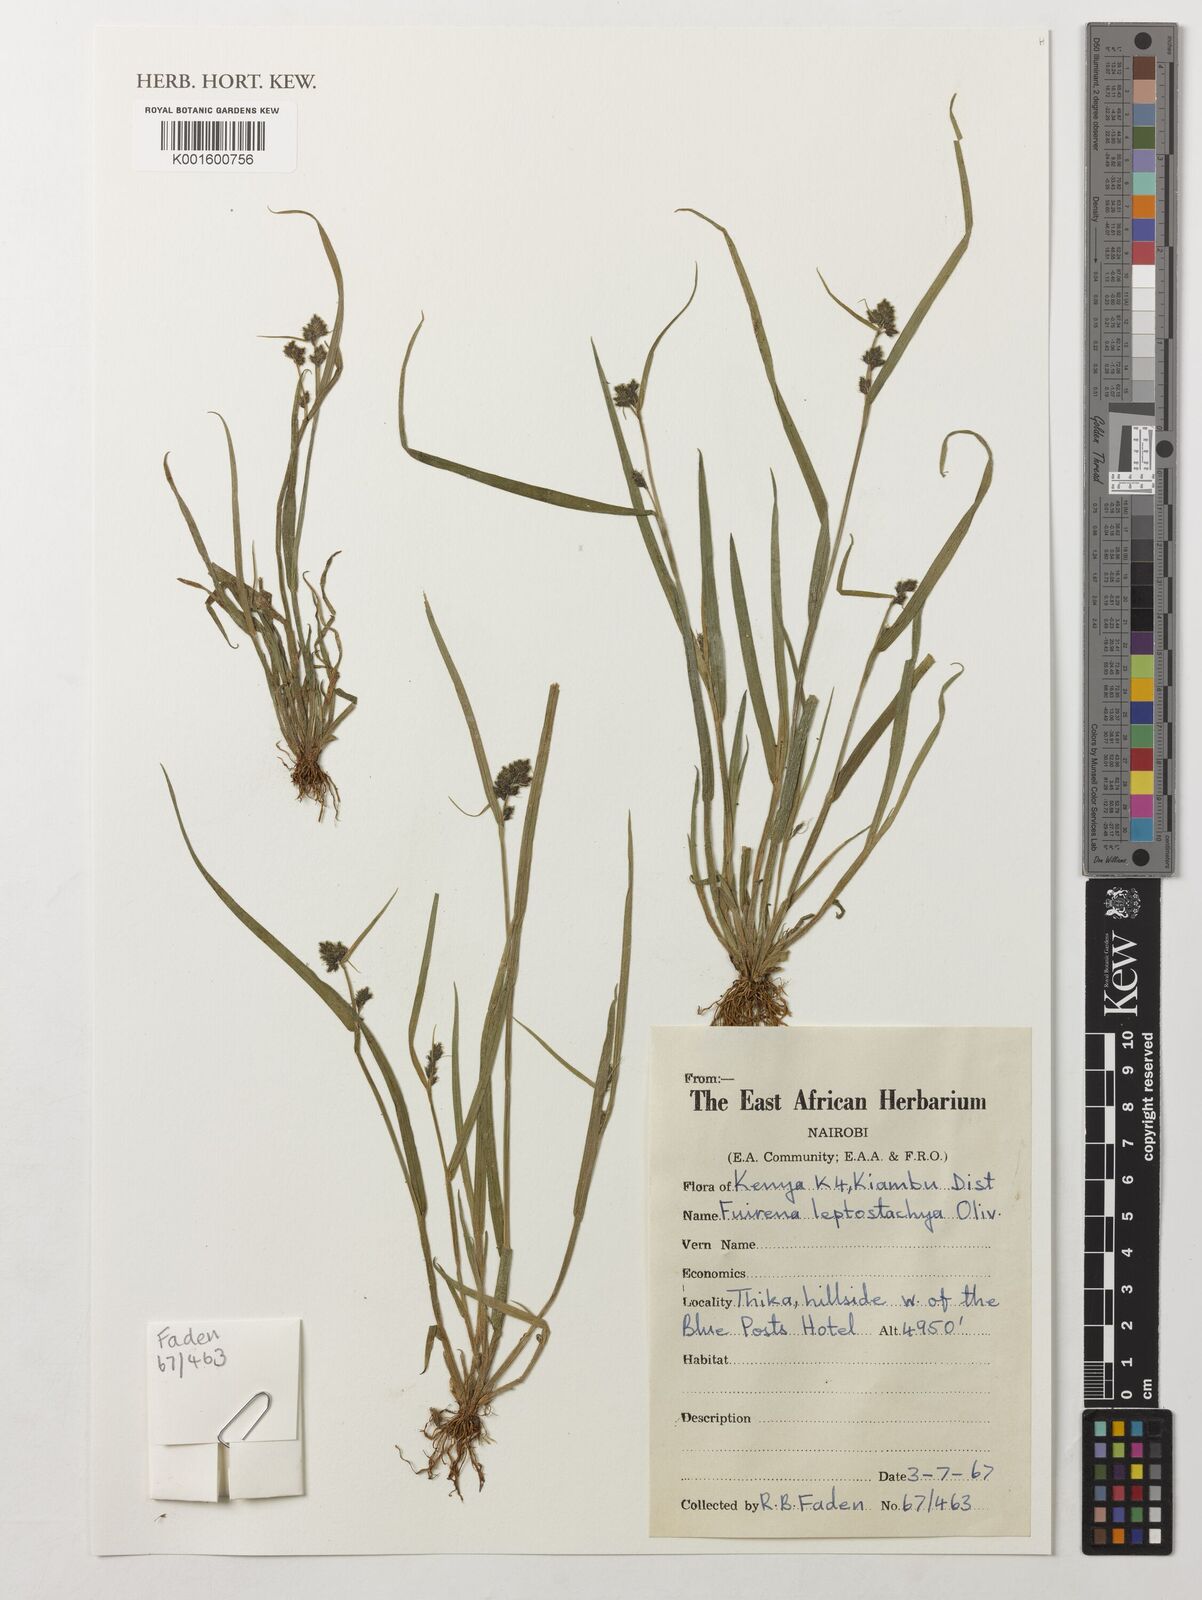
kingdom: Plantae
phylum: Tracheophyta
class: Liliopsida
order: Poales
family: Cyperaceae
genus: Fuirena
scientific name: Fuirena leptostachya
